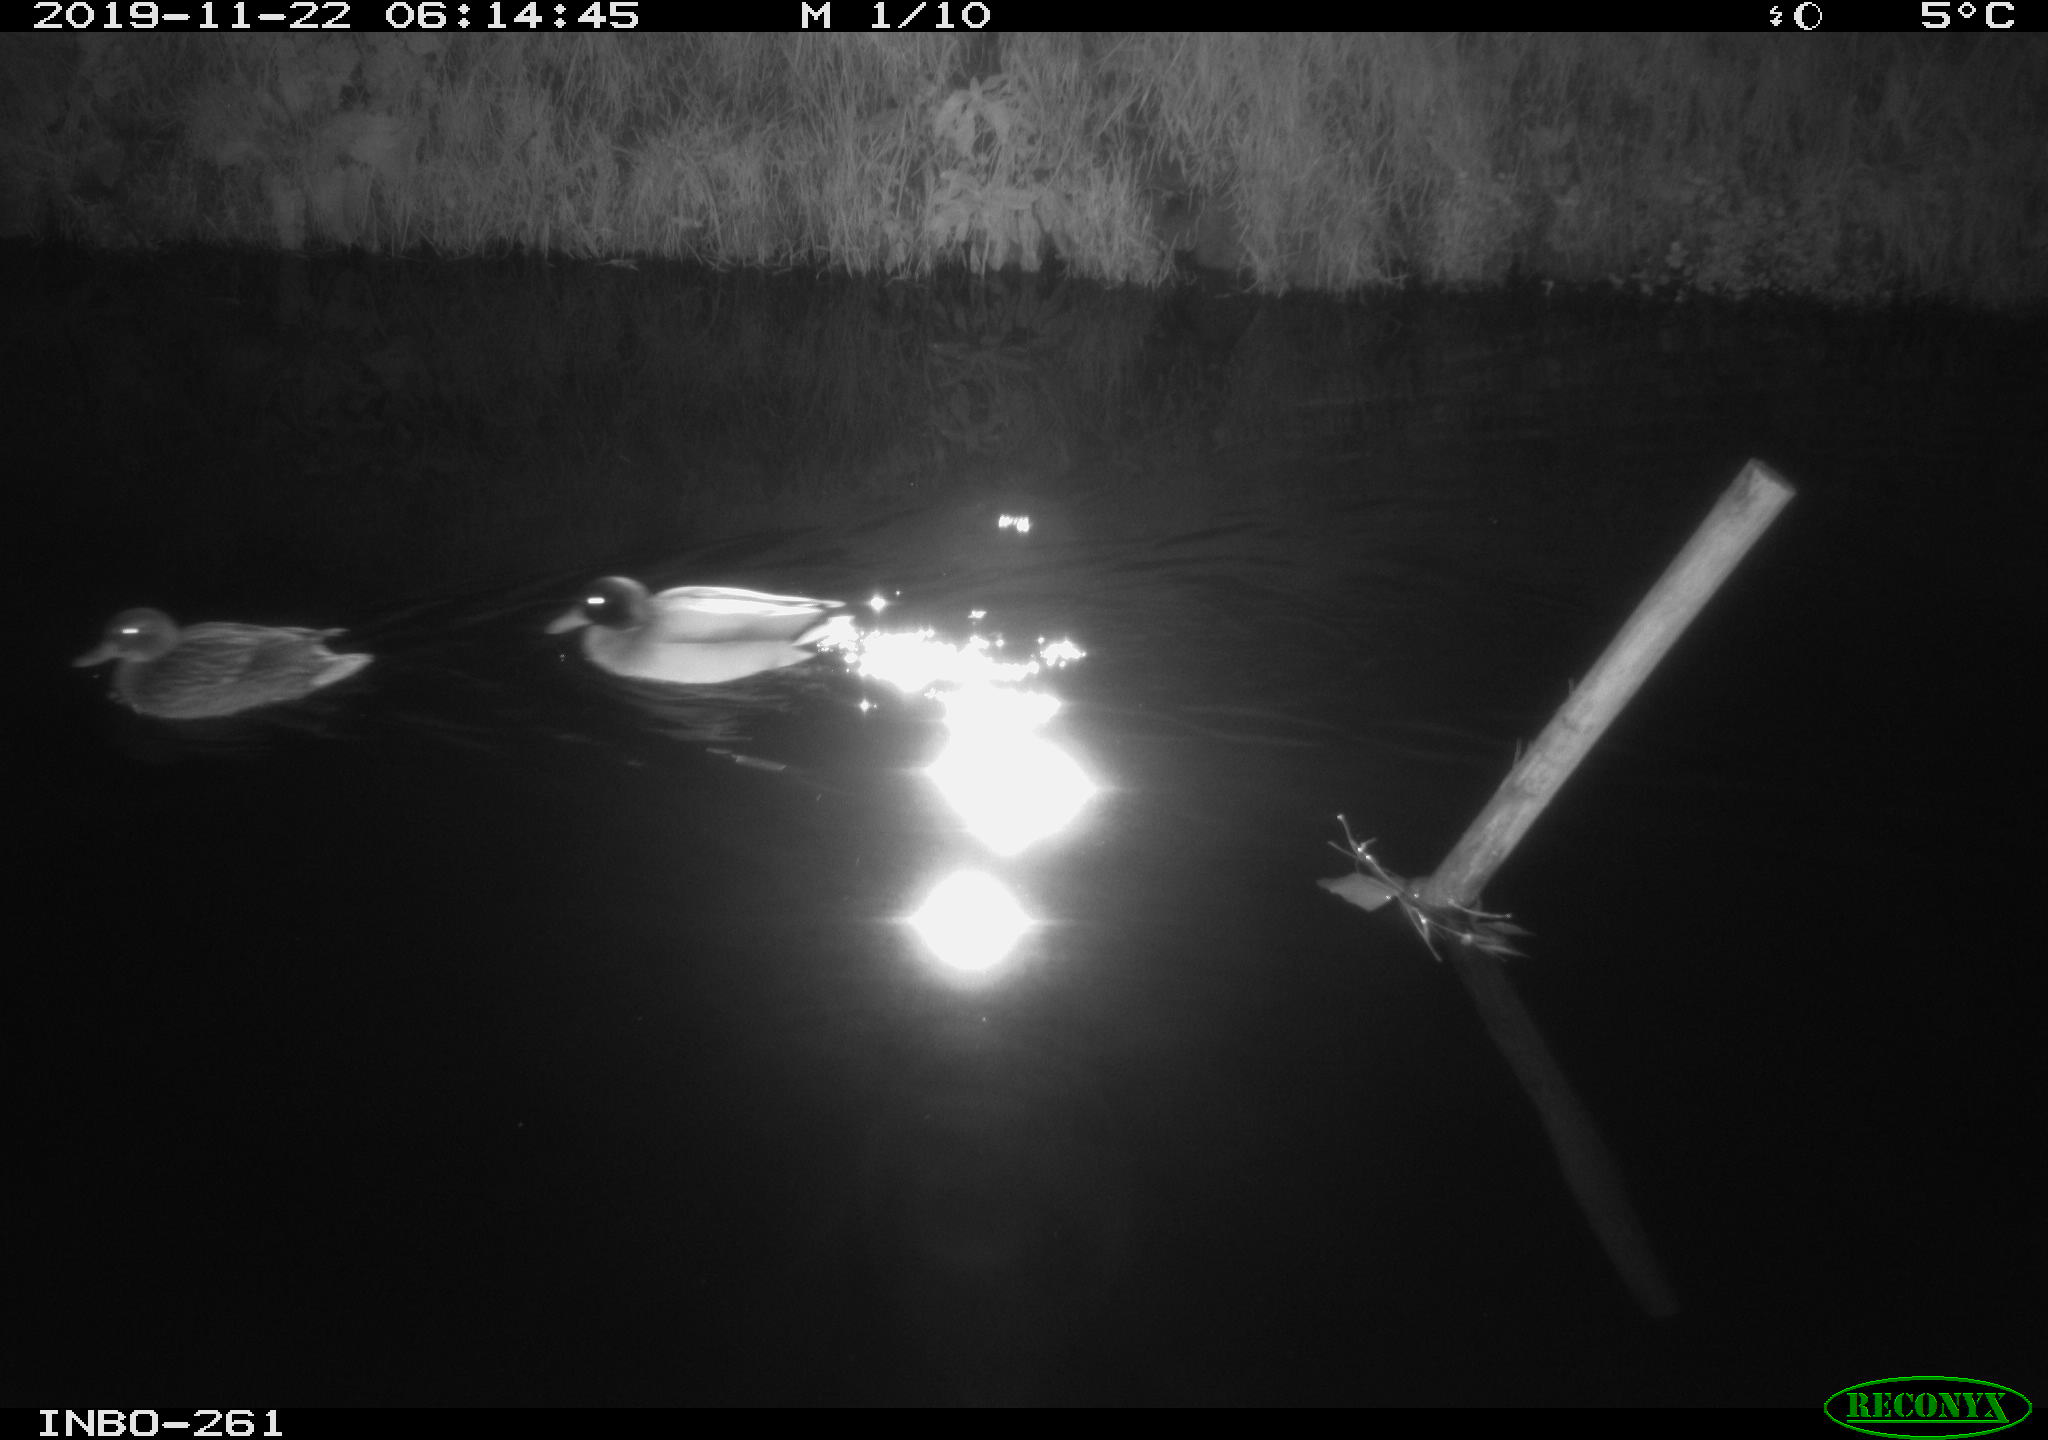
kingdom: Animalia
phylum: Chordata
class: Aves
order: Anseriformes
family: Anatidae
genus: Anas
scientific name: Anas platyrhynchos
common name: Mallard
